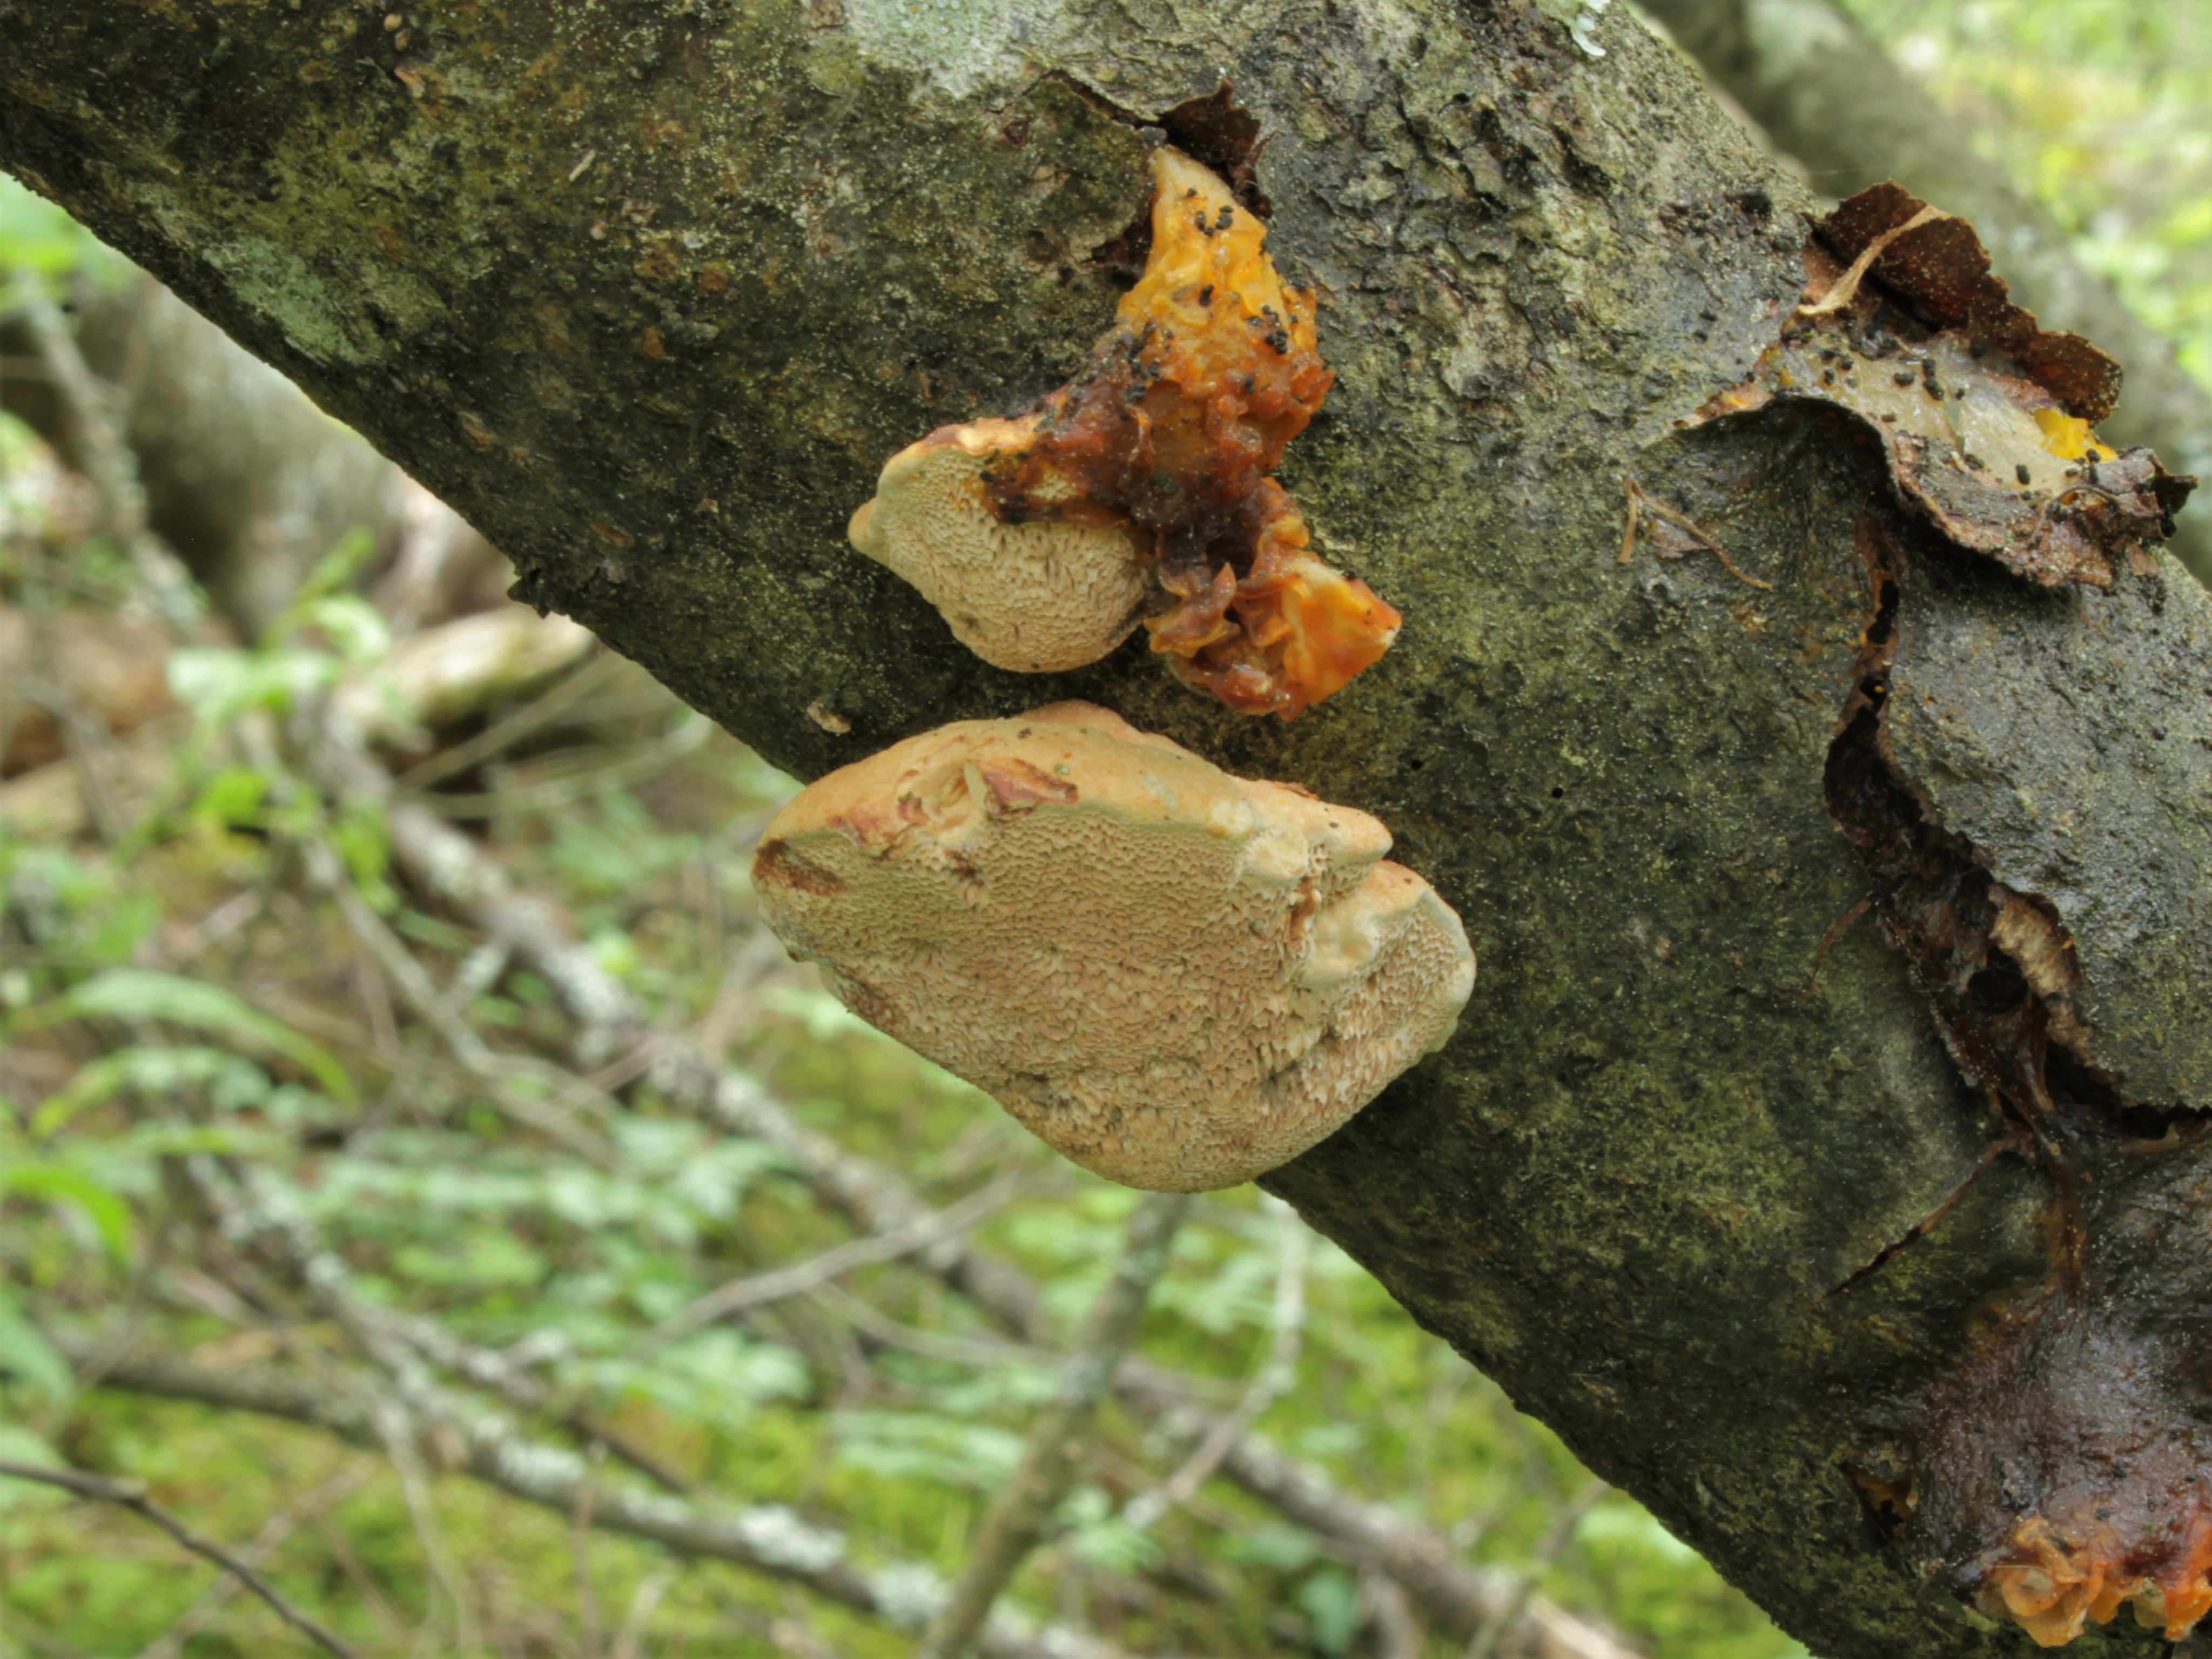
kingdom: Fungi
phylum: Basidiomycota
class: Agaricomycetes
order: Polyporales
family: Phanerochaetaceae
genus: Hapalopilus
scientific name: Hapalopilus rutilans
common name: Tender nesting polypore
